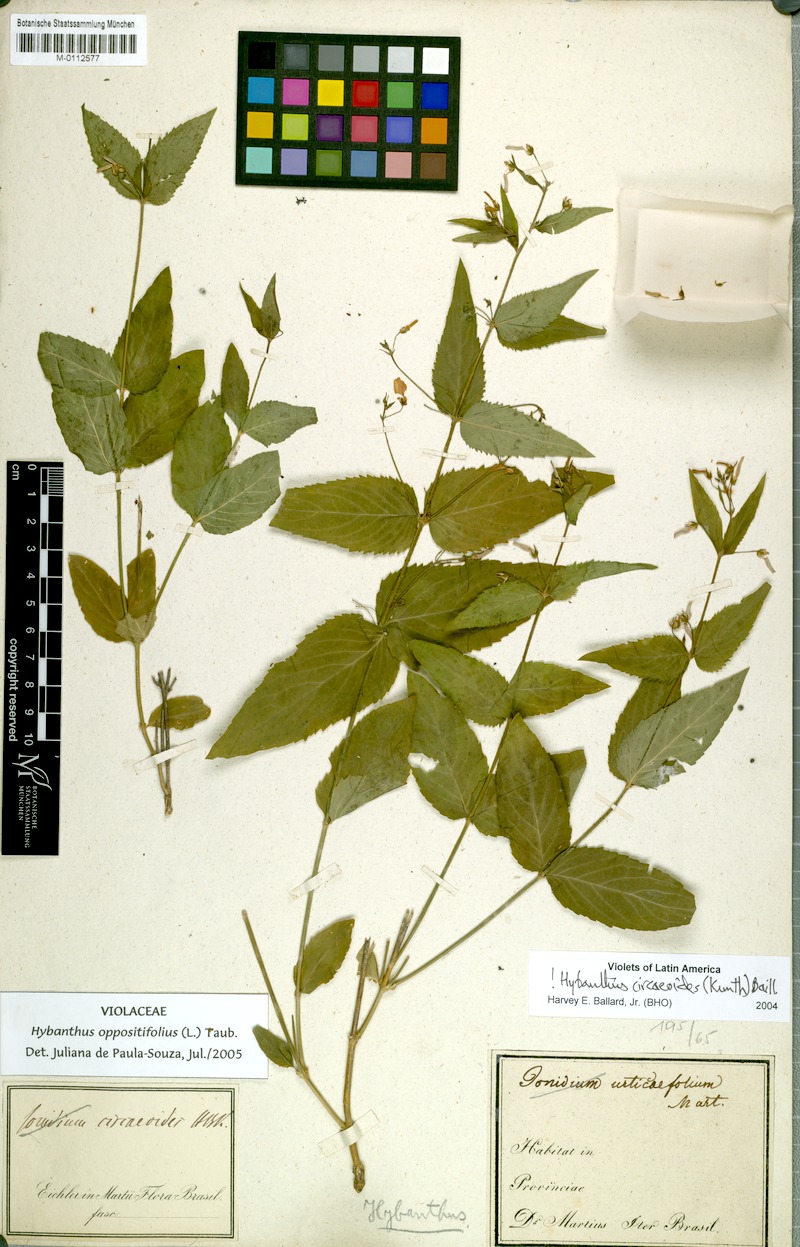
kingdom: Plantae
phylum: Tracheophyta
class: Magnoliopsida
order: Malpighiales
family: Violaceae
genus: Pombalia
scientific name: Pombalia oppositifolia
